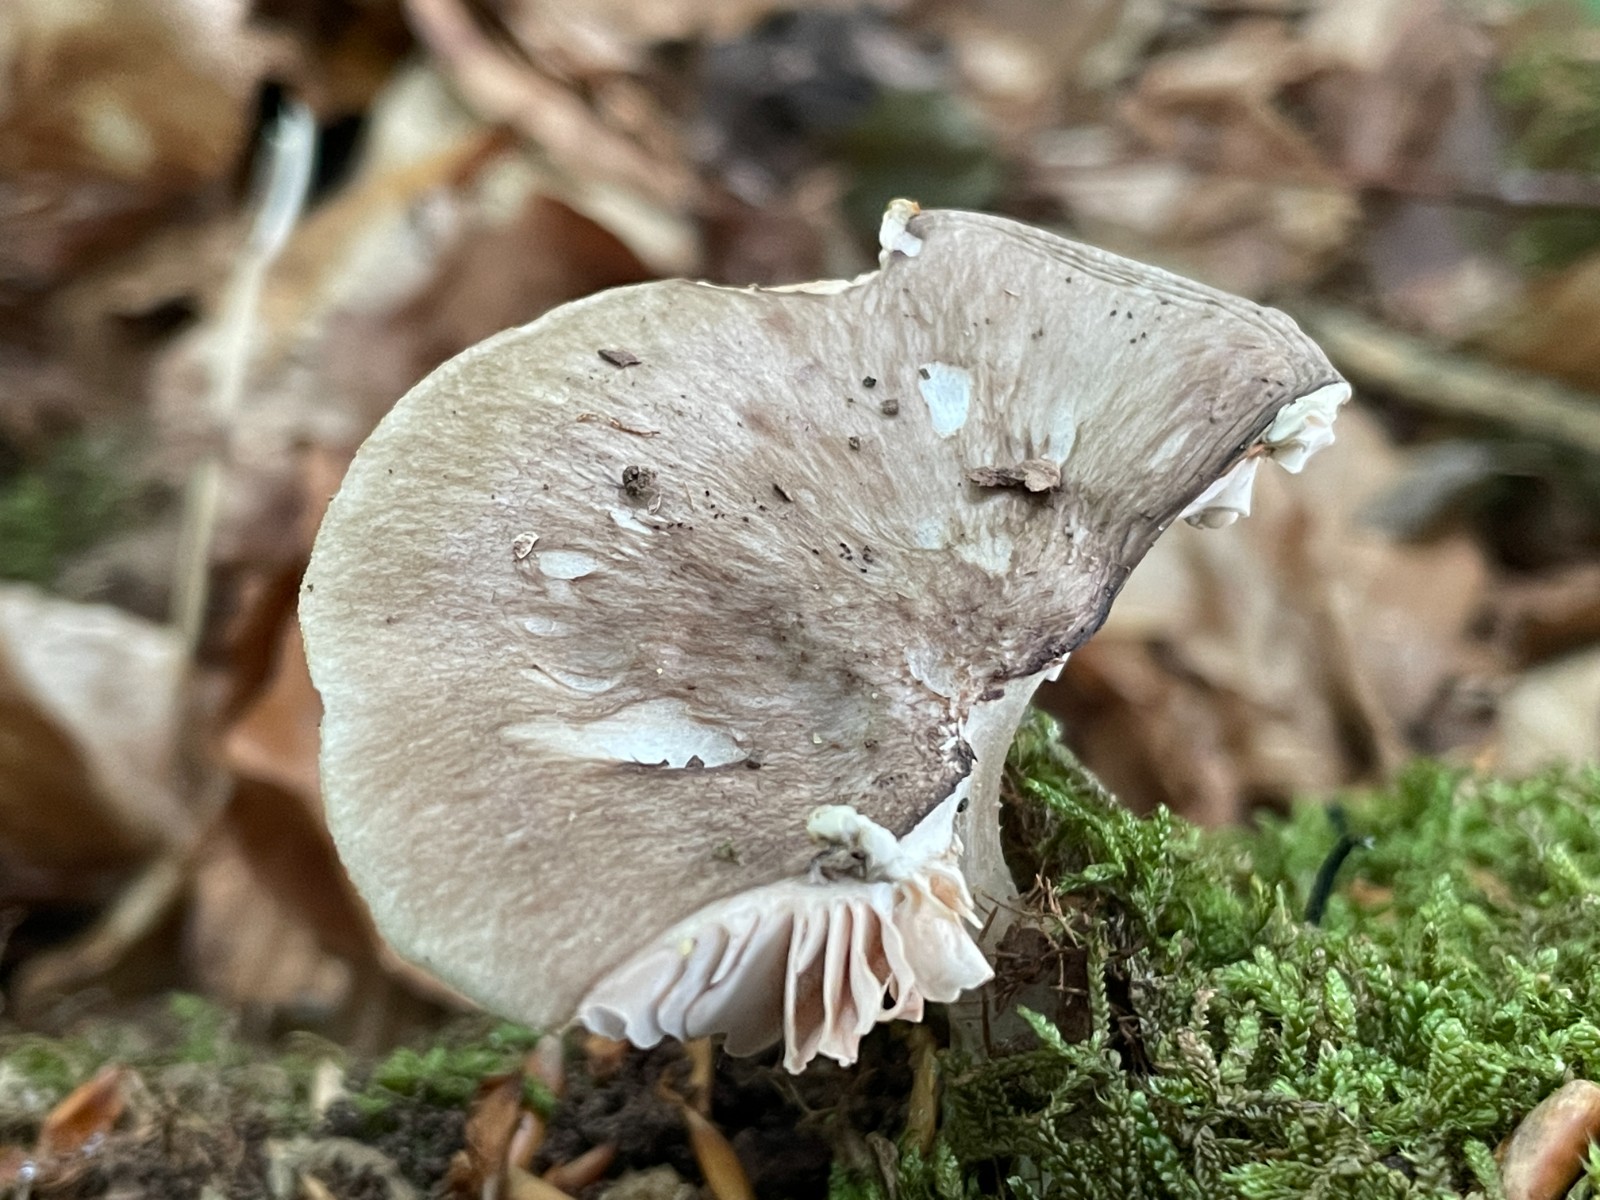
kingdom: Fungi
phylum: Basidiomycota
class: Agaricomycetes
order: Agaricales
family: Pluteaceae
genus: Pluteus
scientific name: Pluteus salicinus
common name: stiv skærmhat
